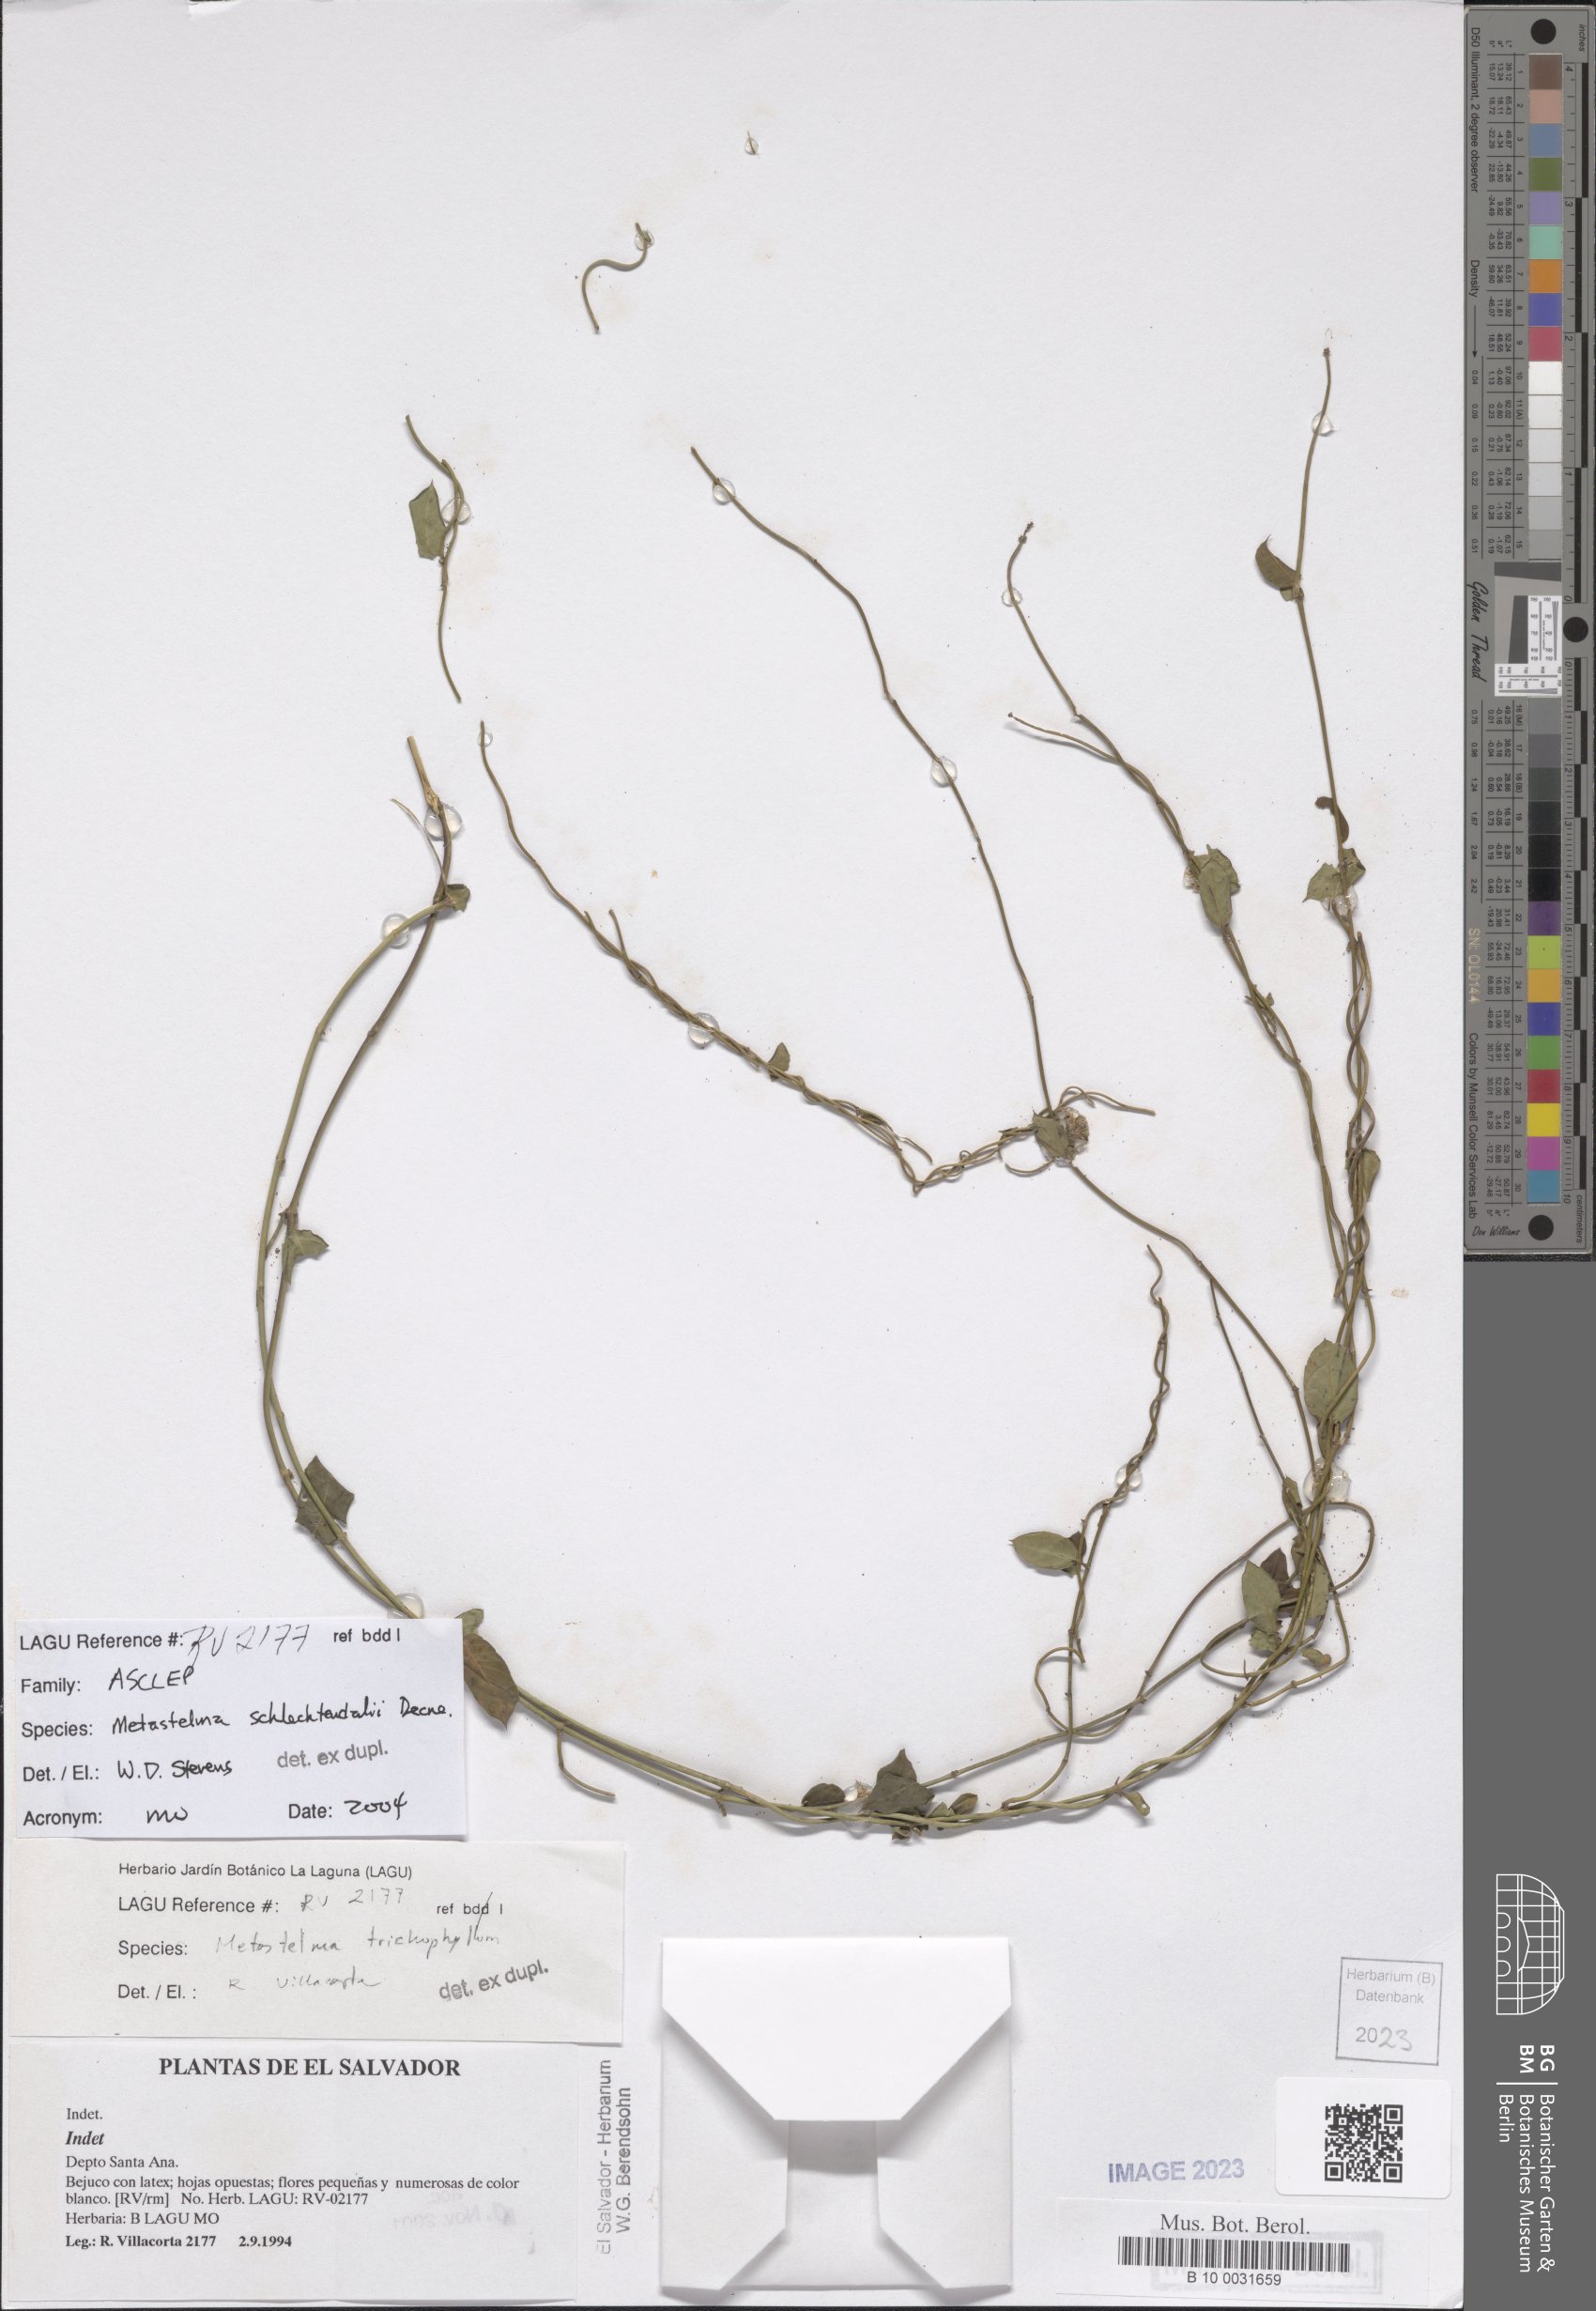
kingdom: Plantae
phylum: Tracheophyta
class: Magnoliopsida
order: Gentianales
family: Apocynaceae
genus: Metastelma
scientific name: Metastelma schlechtendalii
